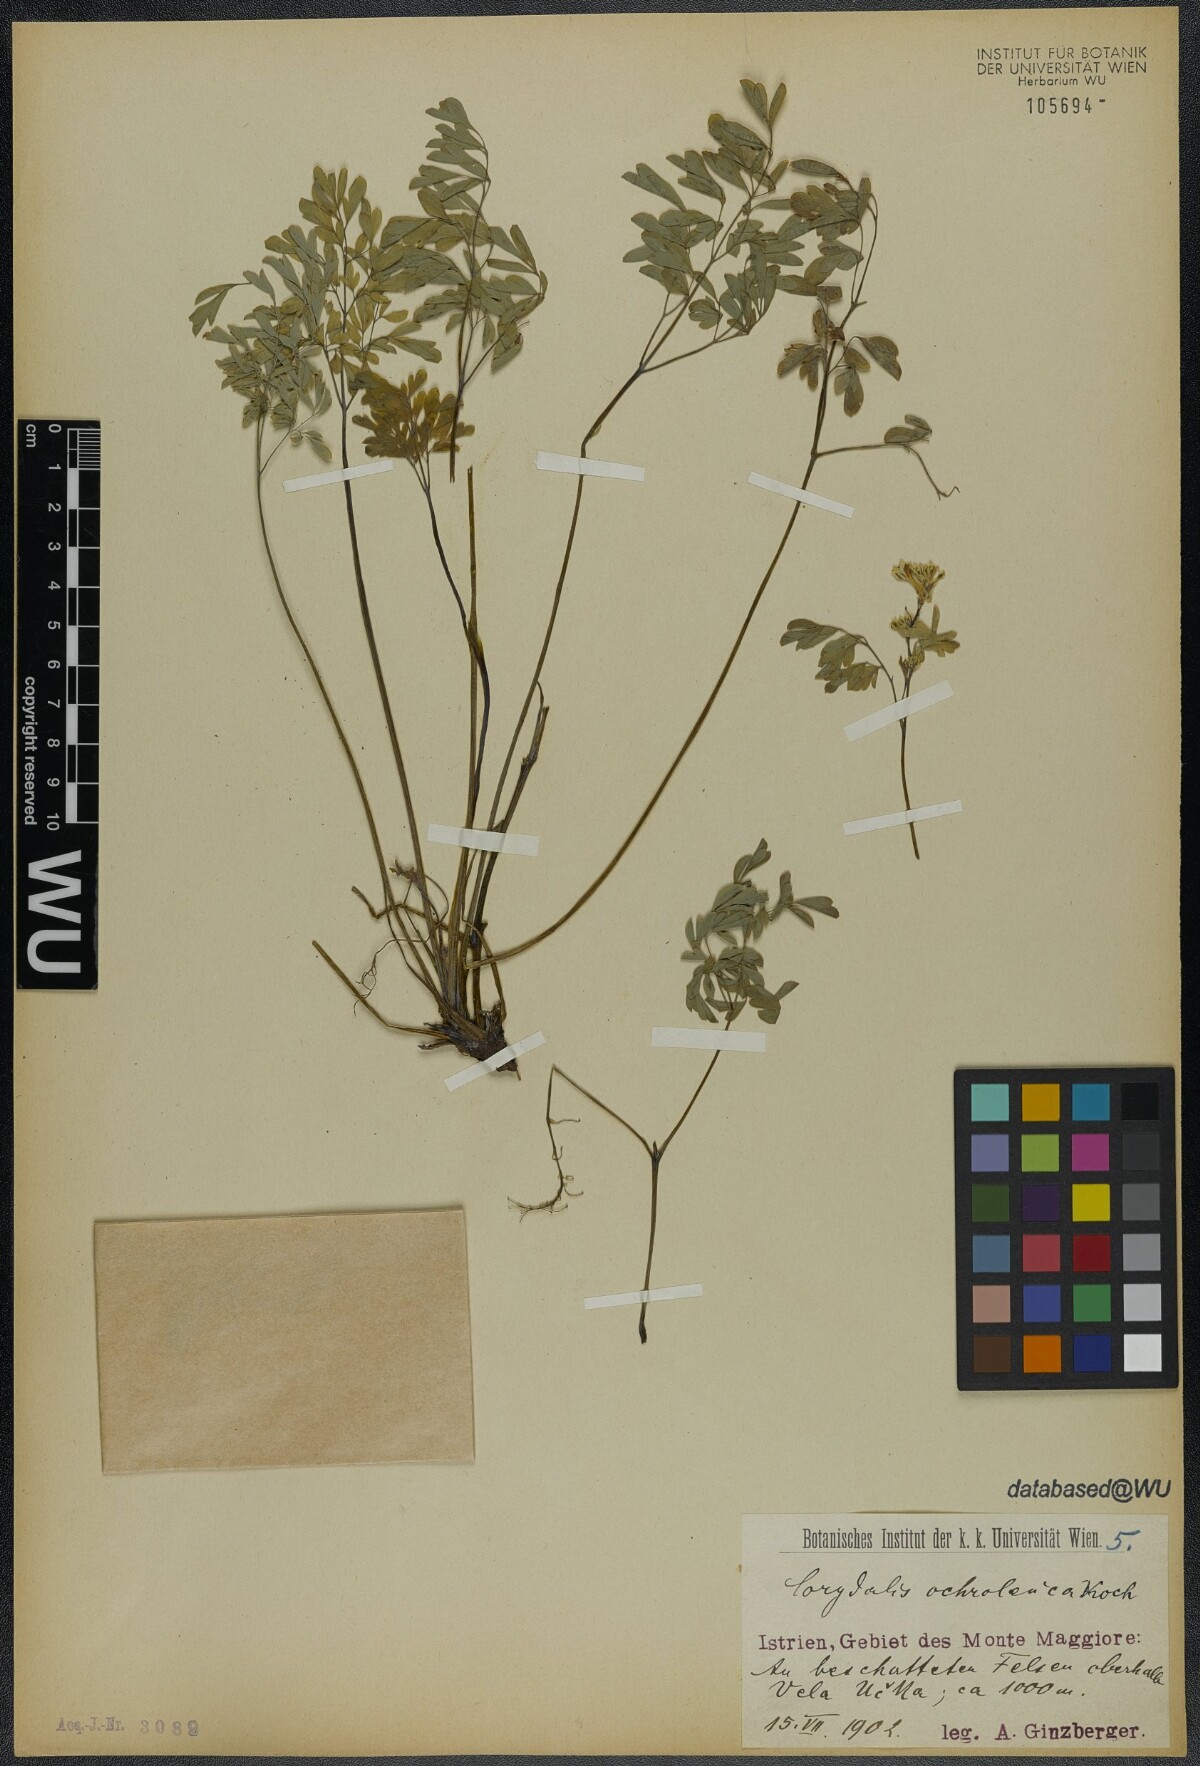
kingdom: Plantae
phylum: Tracheophyta
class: Magnoliopsida
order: Ranunculales
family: Papaveraceae
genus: Pseudofumaria
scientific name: Pseudofumaria alba
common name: Pale corydalis
